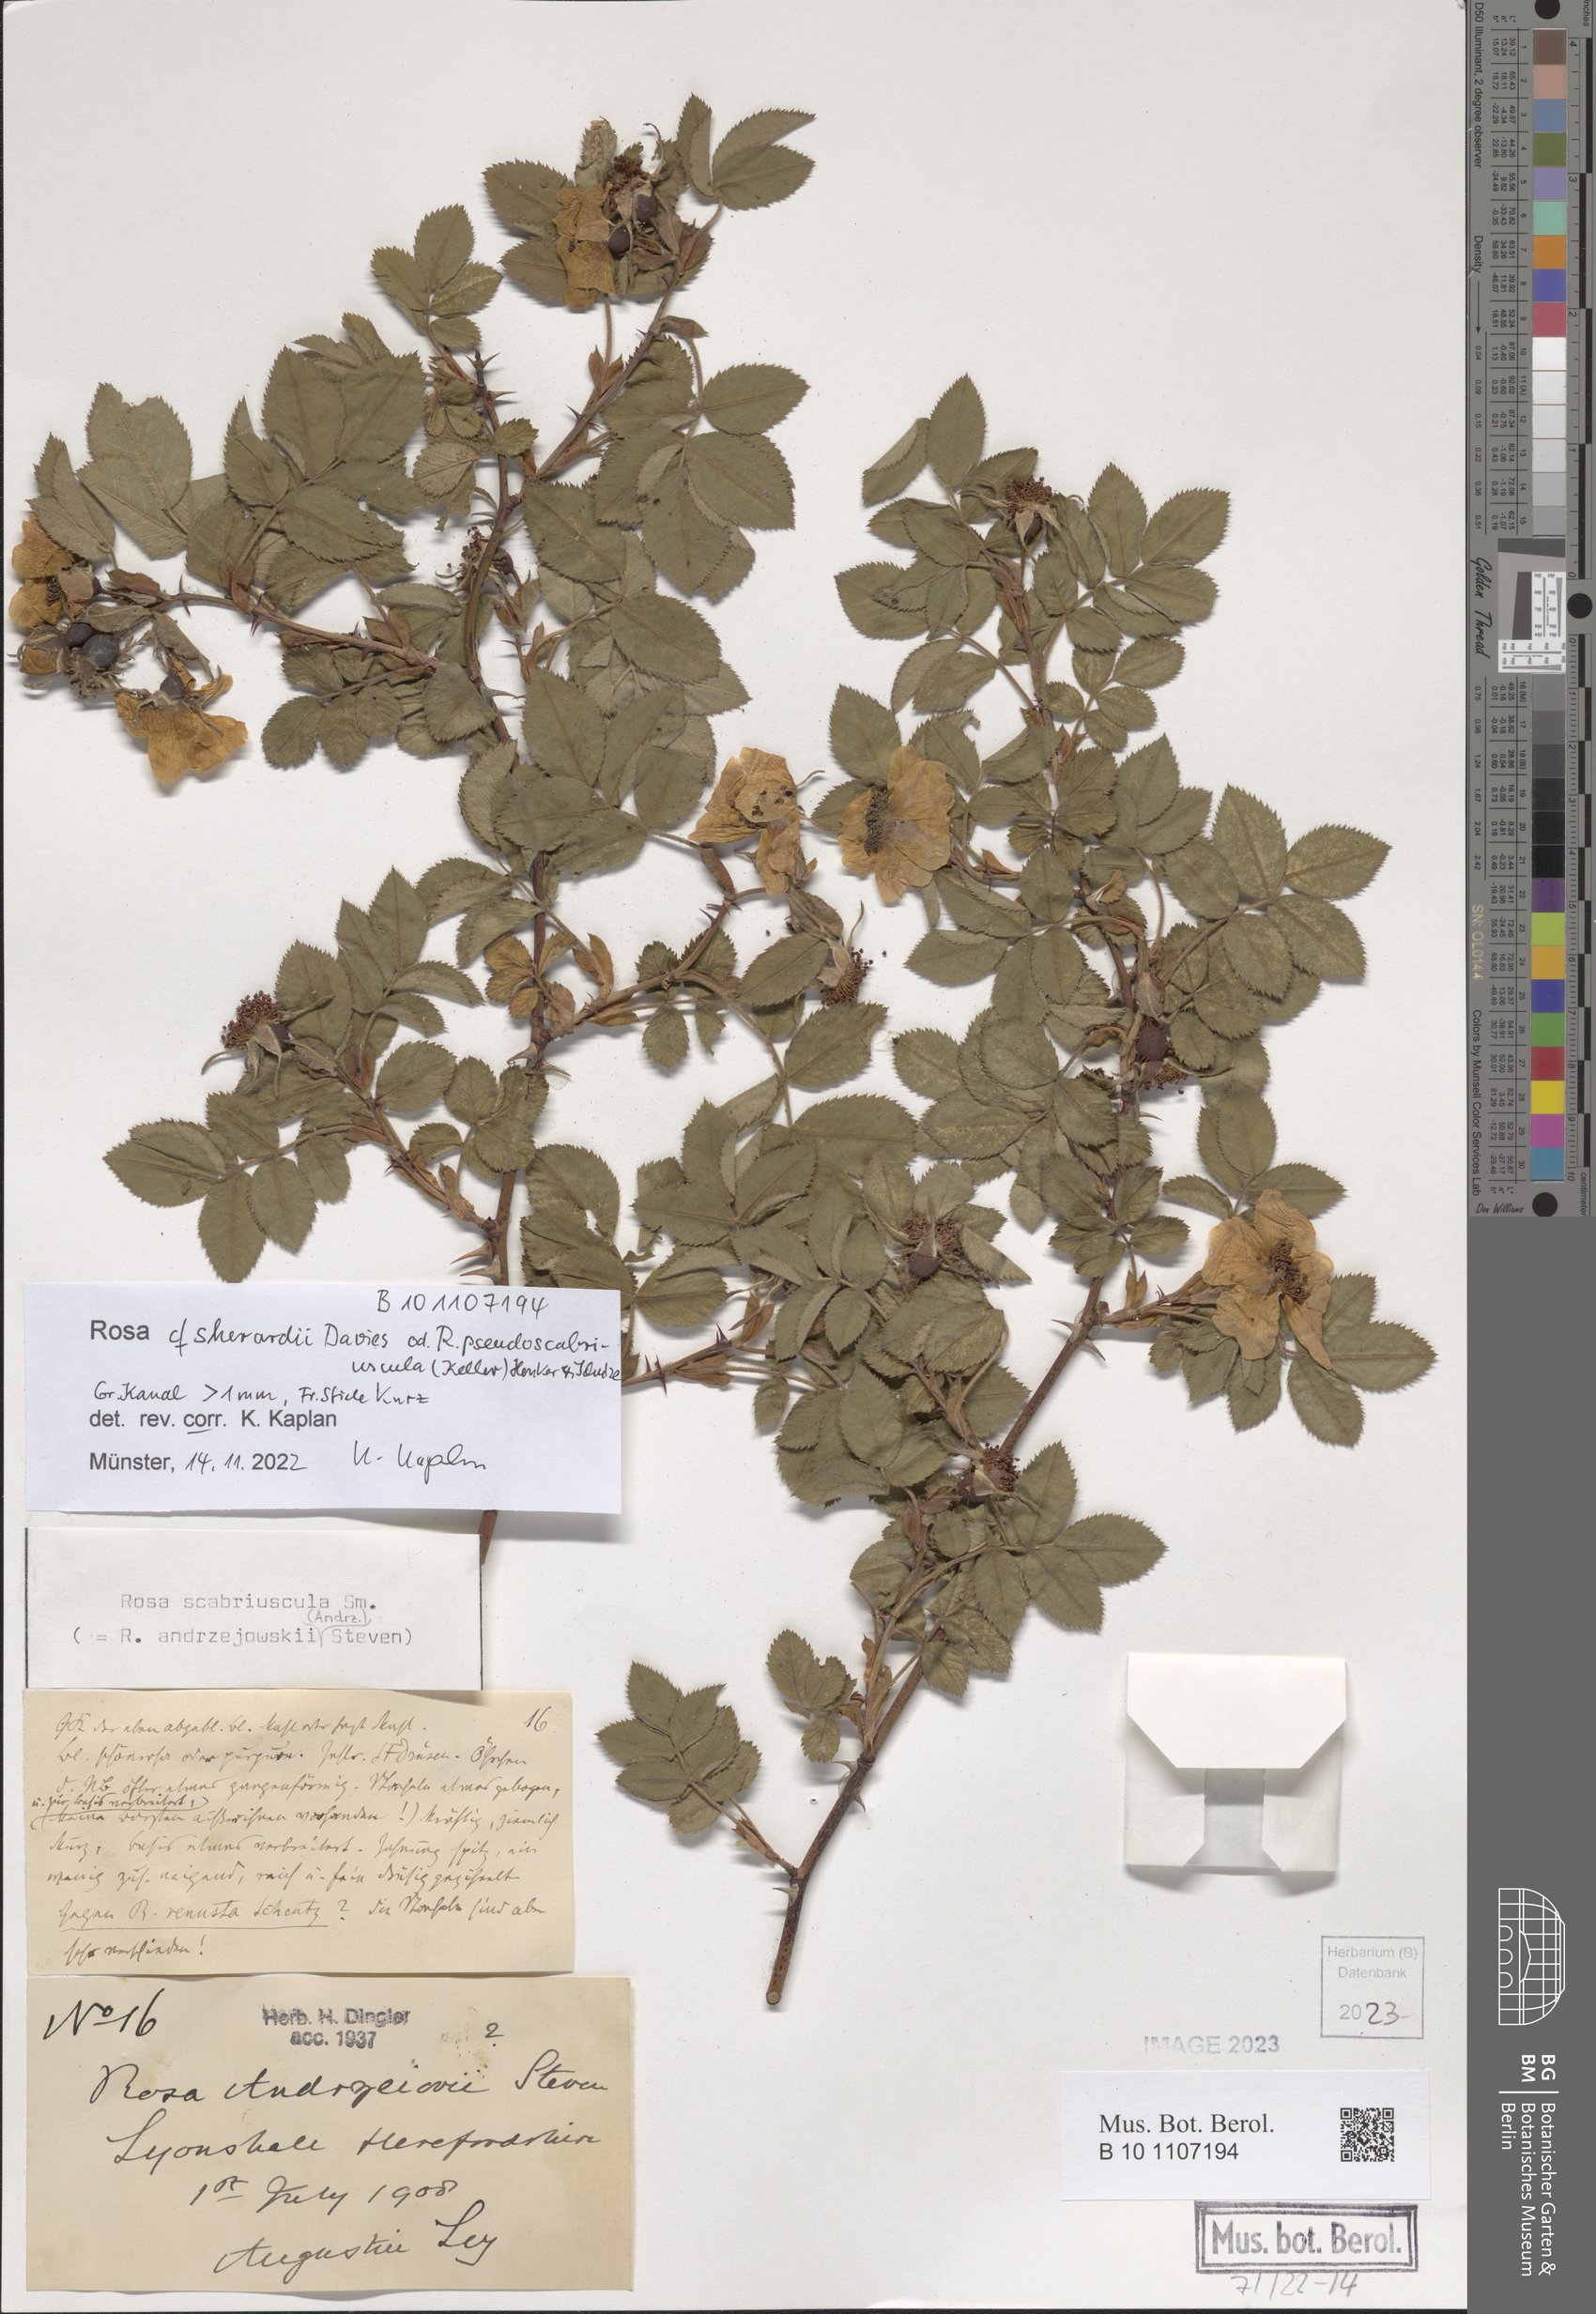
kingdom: Plantae
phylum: Tracheophyta
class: Magnoliopsida
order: Rosales
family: Rosaceae
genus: Rosa
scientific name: Rosa sherardii
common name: Sherard's downy rose
